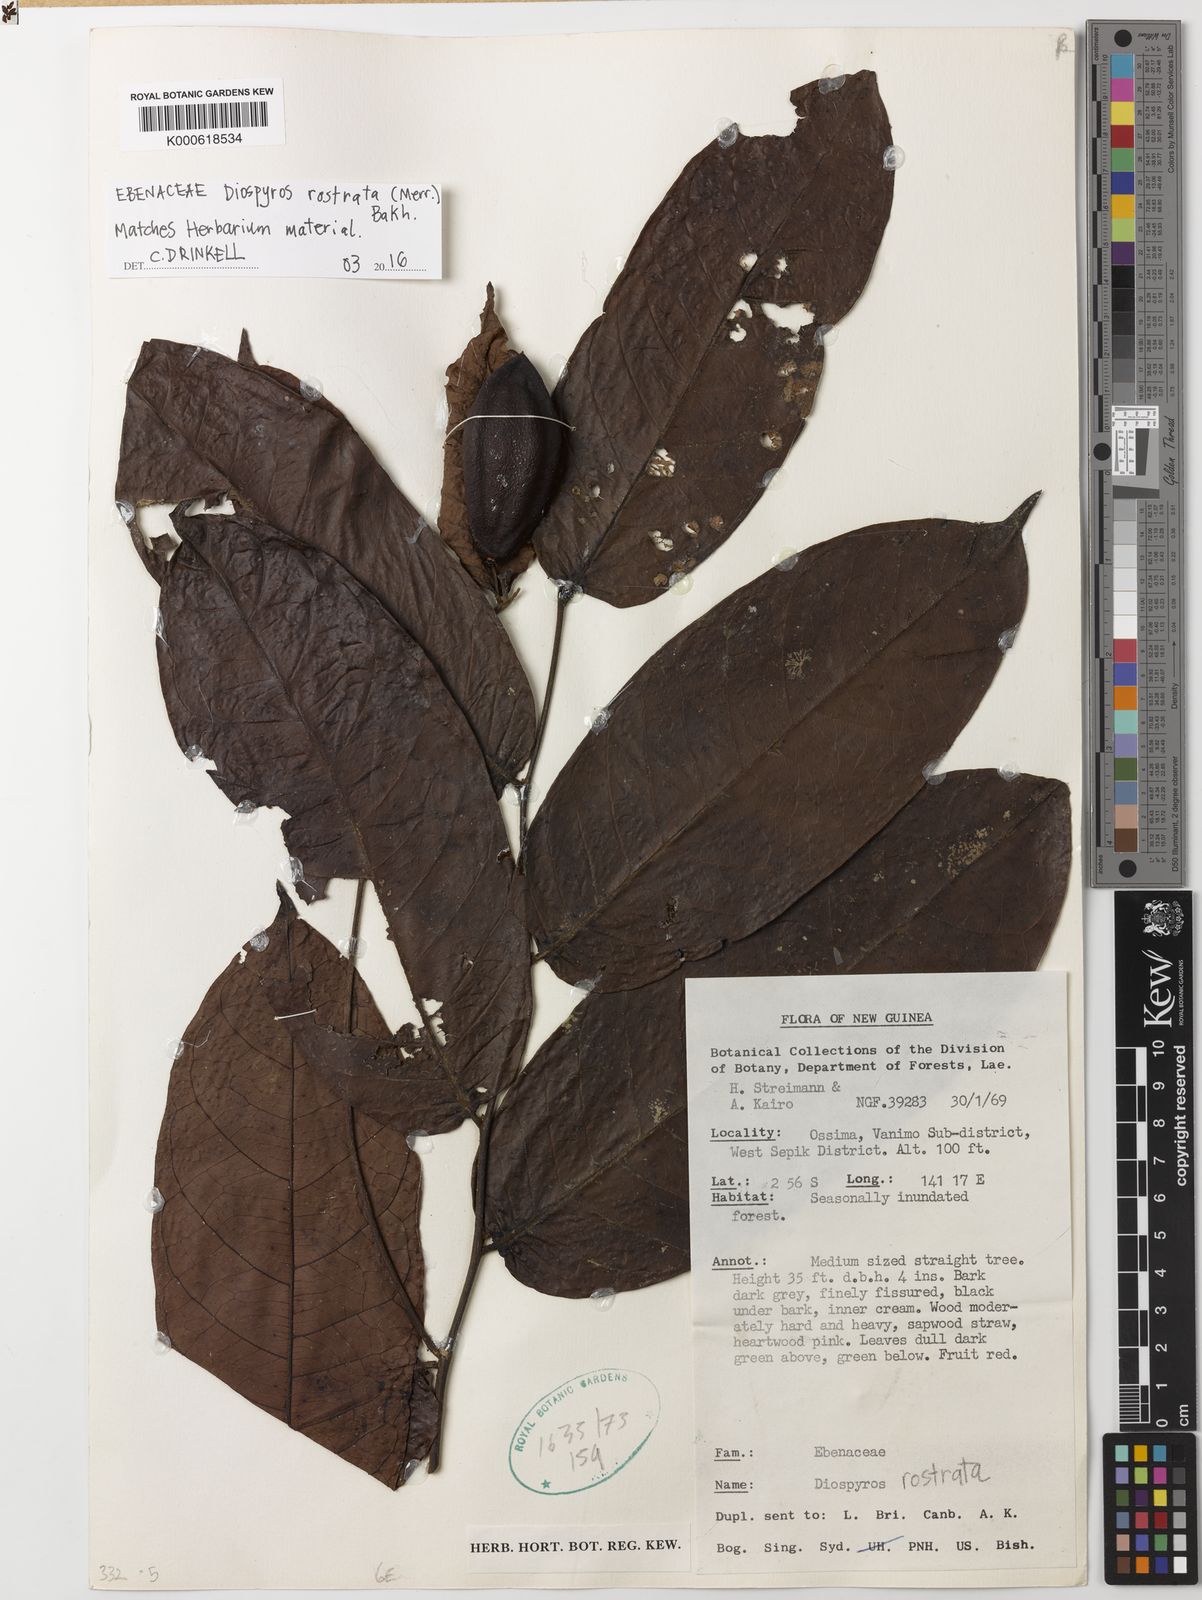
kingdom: Plantae
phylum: Tracheophyta
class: Magnoliopsida
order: Ericales
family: Ebenaceae
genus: Diospyros
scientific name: Diospyros rostrata
